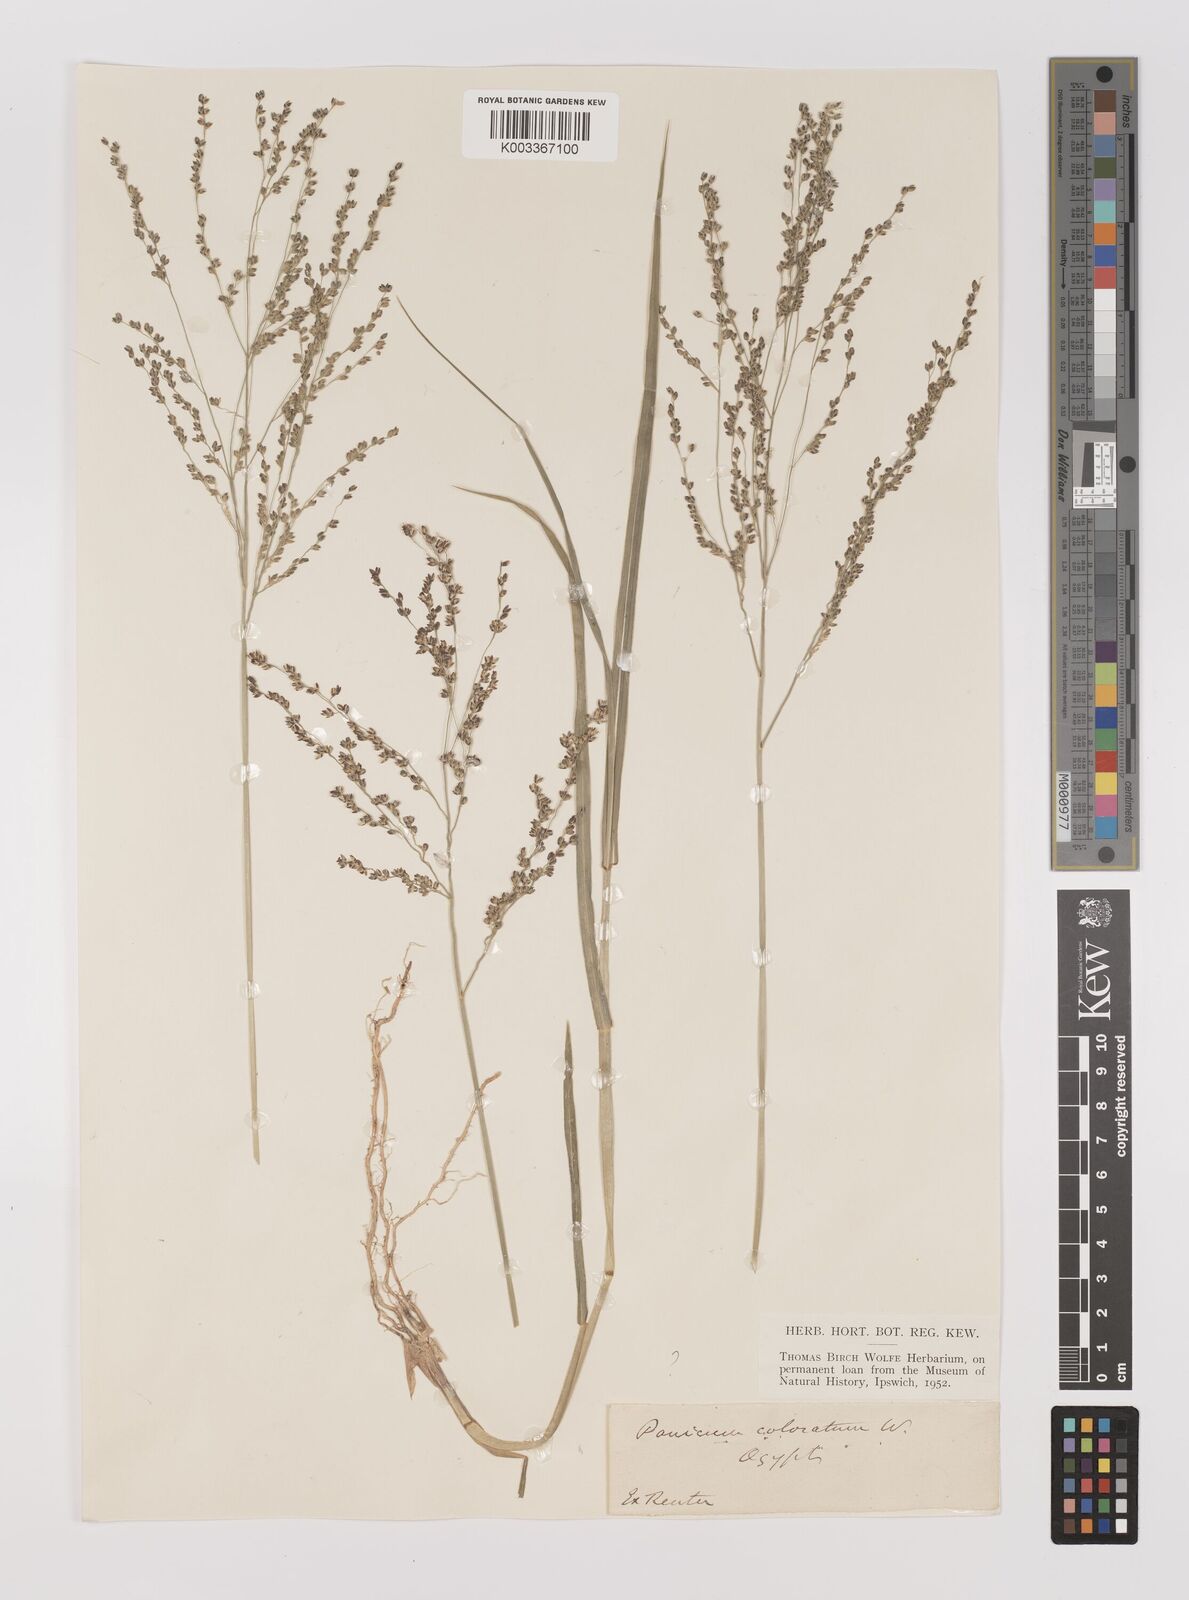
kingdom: Plantae
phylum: Tracheophyta
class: Liliopsida
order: Poales
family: Poaceae
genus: Panicum
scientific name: Panicum coloratum
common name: Kleingrass
